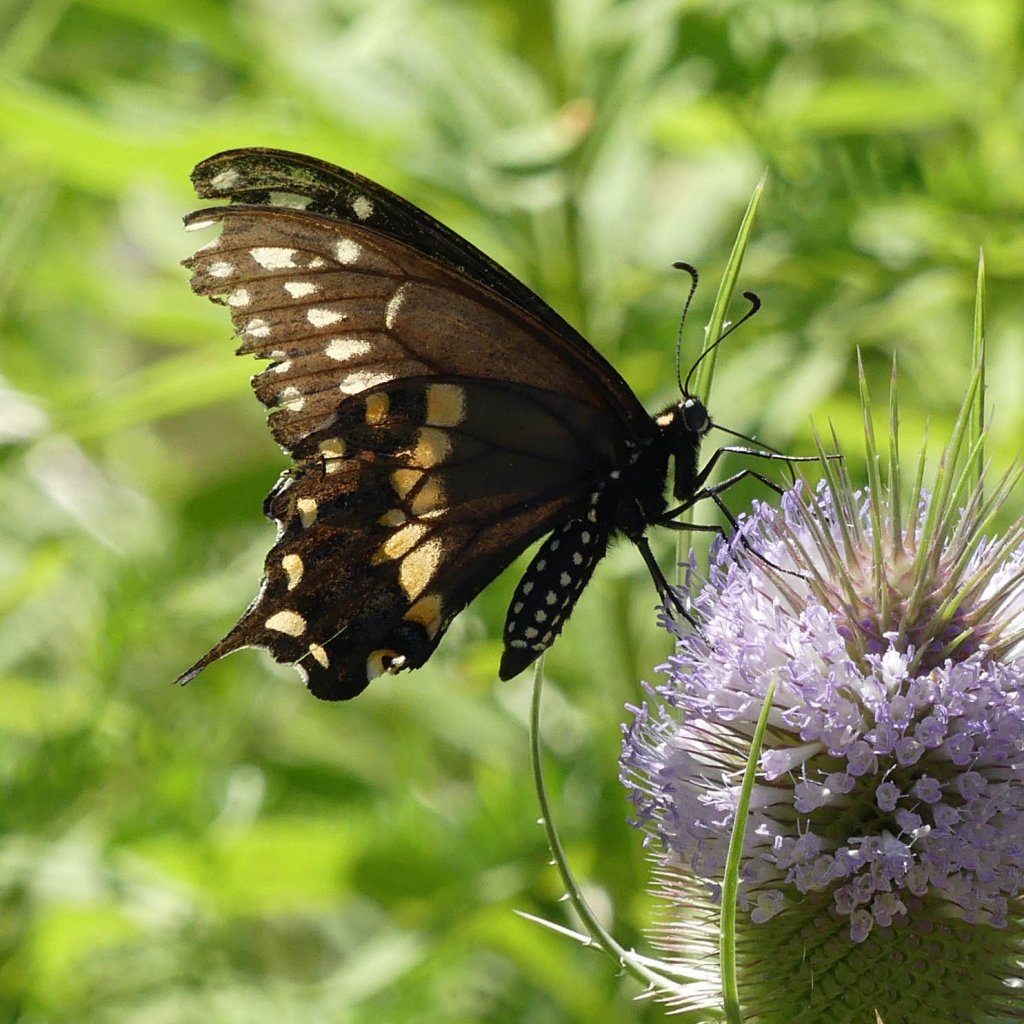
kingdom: Animalia
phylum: Arthropoda
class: Insecta
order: Lepidoptera
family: Papilionidae
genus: Papilio
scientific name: Papilio polyxenes
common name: Black Swallowtail
